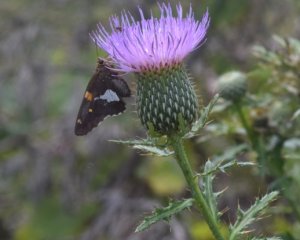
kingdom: Animalia
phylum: Arthropoda
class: Insecta
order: Lepidoptera
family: Hesperiidae
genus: Epargyreus
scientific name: Epargyreus clarus
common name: Silver-spotted Skipper
